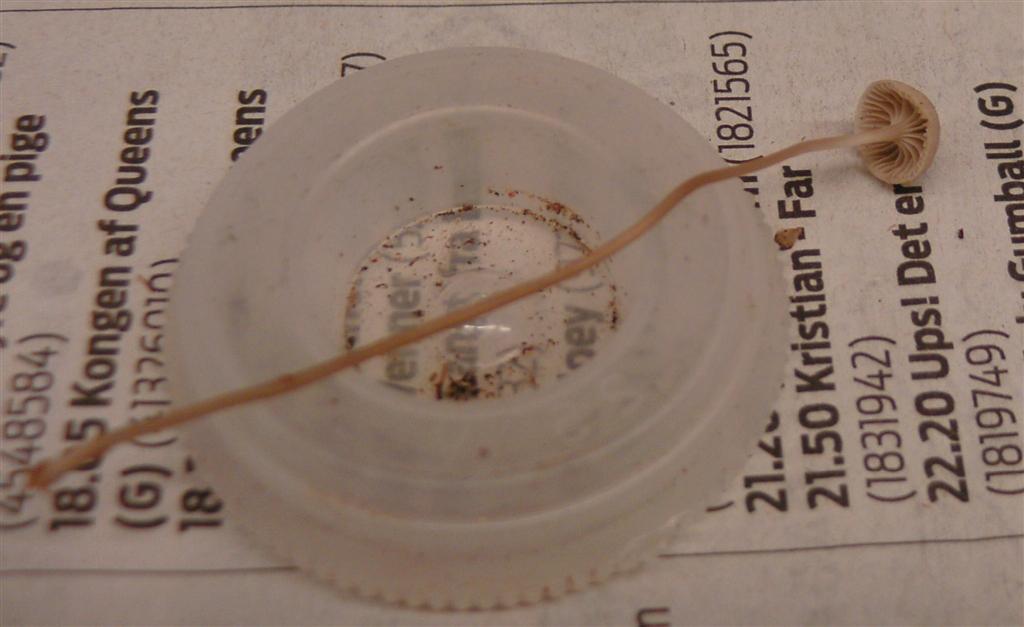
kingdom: Fungi
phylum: Basidiomycota
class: Agaricomycetes
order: Agaricales
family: Mycenaceae
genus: Mycena
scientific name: Mycena cinerella
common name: mel-huesvamp
